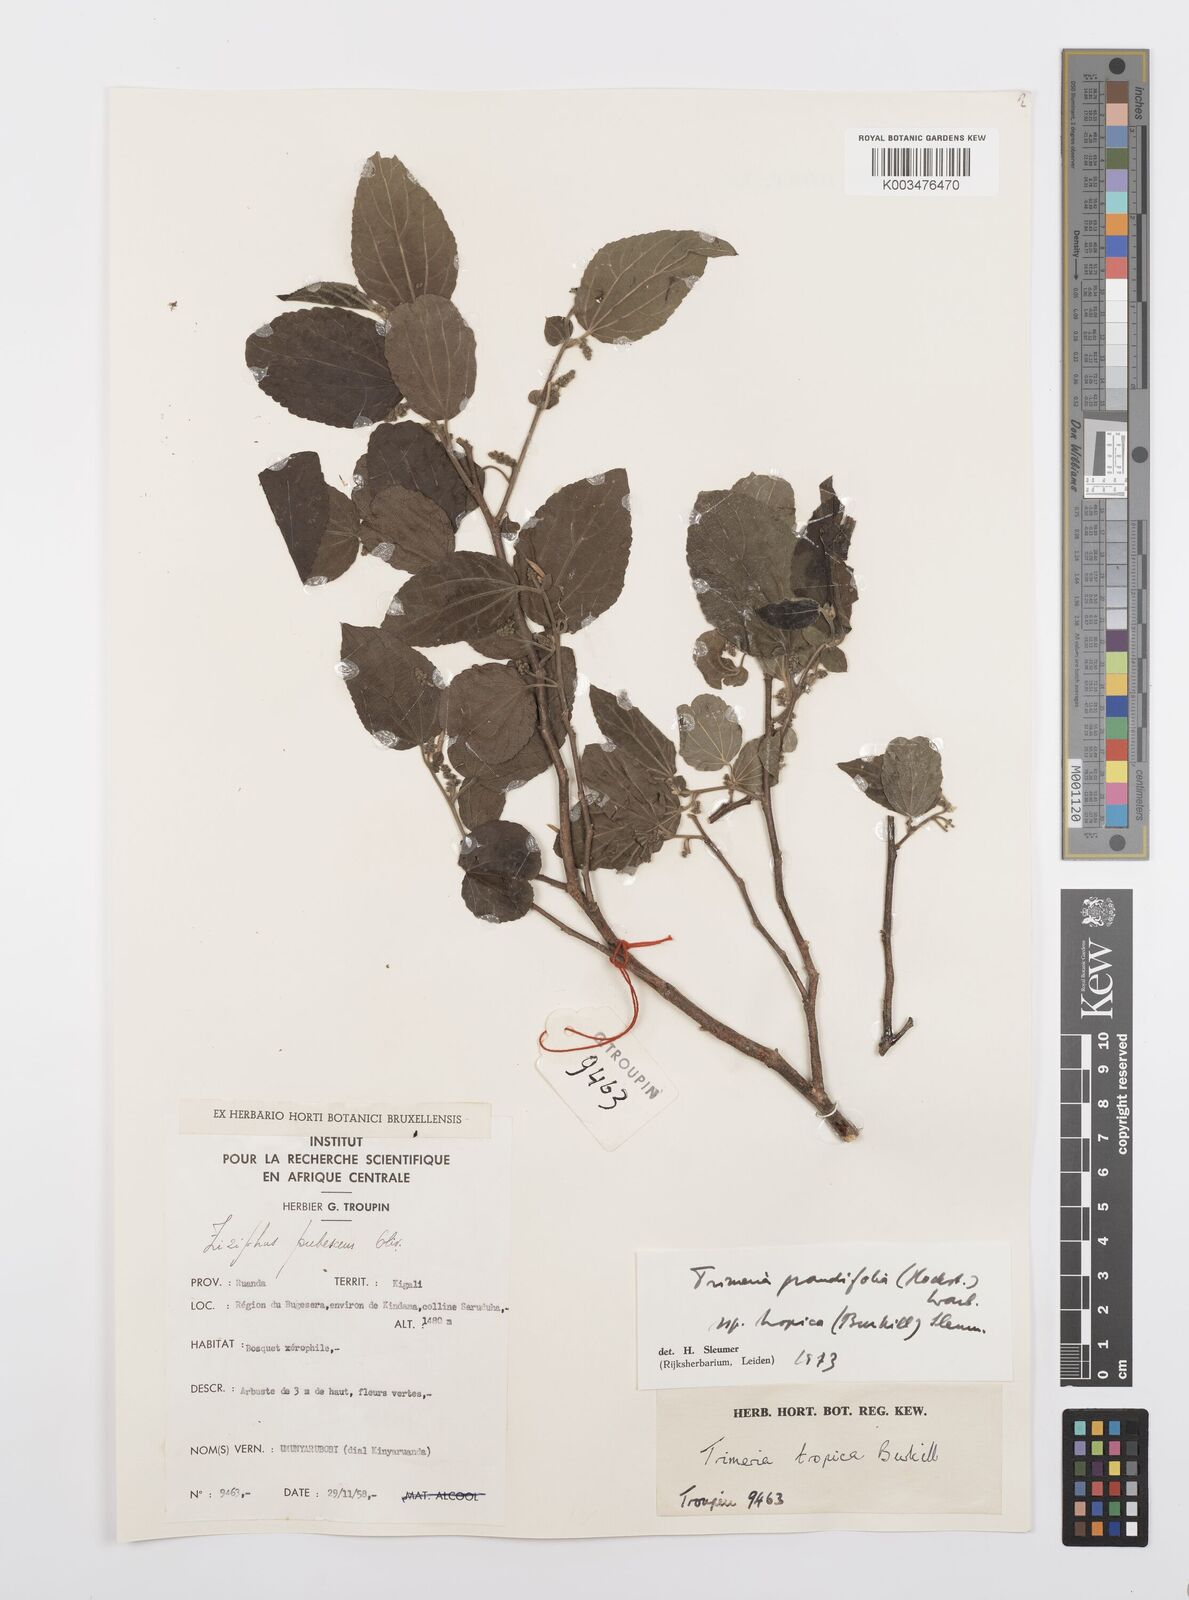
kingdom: Plantae
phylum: Tracheophyta
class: Magnoliopsida
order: Malpighiales
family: Salicaceae
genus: Trimeria
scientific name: Trimeria grandifolia
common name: Wild mulberry
